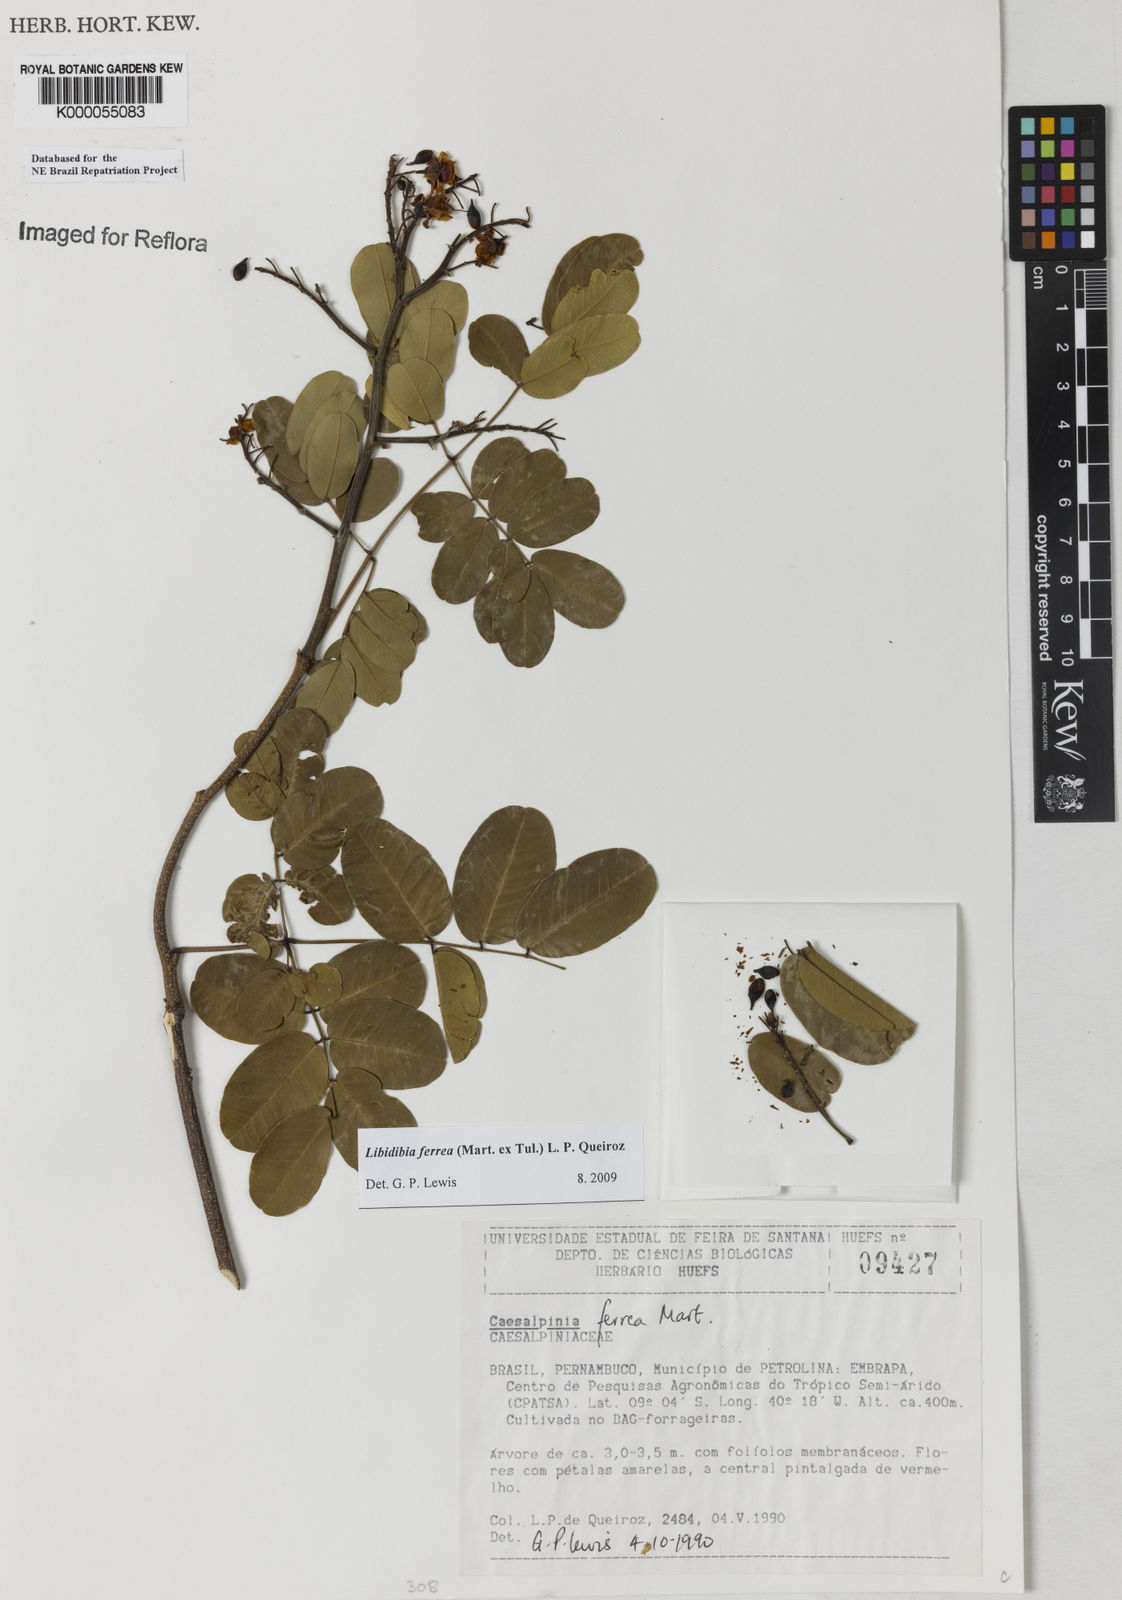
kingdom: Plantae
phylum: Tracheophyta
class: Magnoliopsida
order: Fabales
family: Fabaceae
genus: Libidibia
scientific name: Libidibia ferrea
